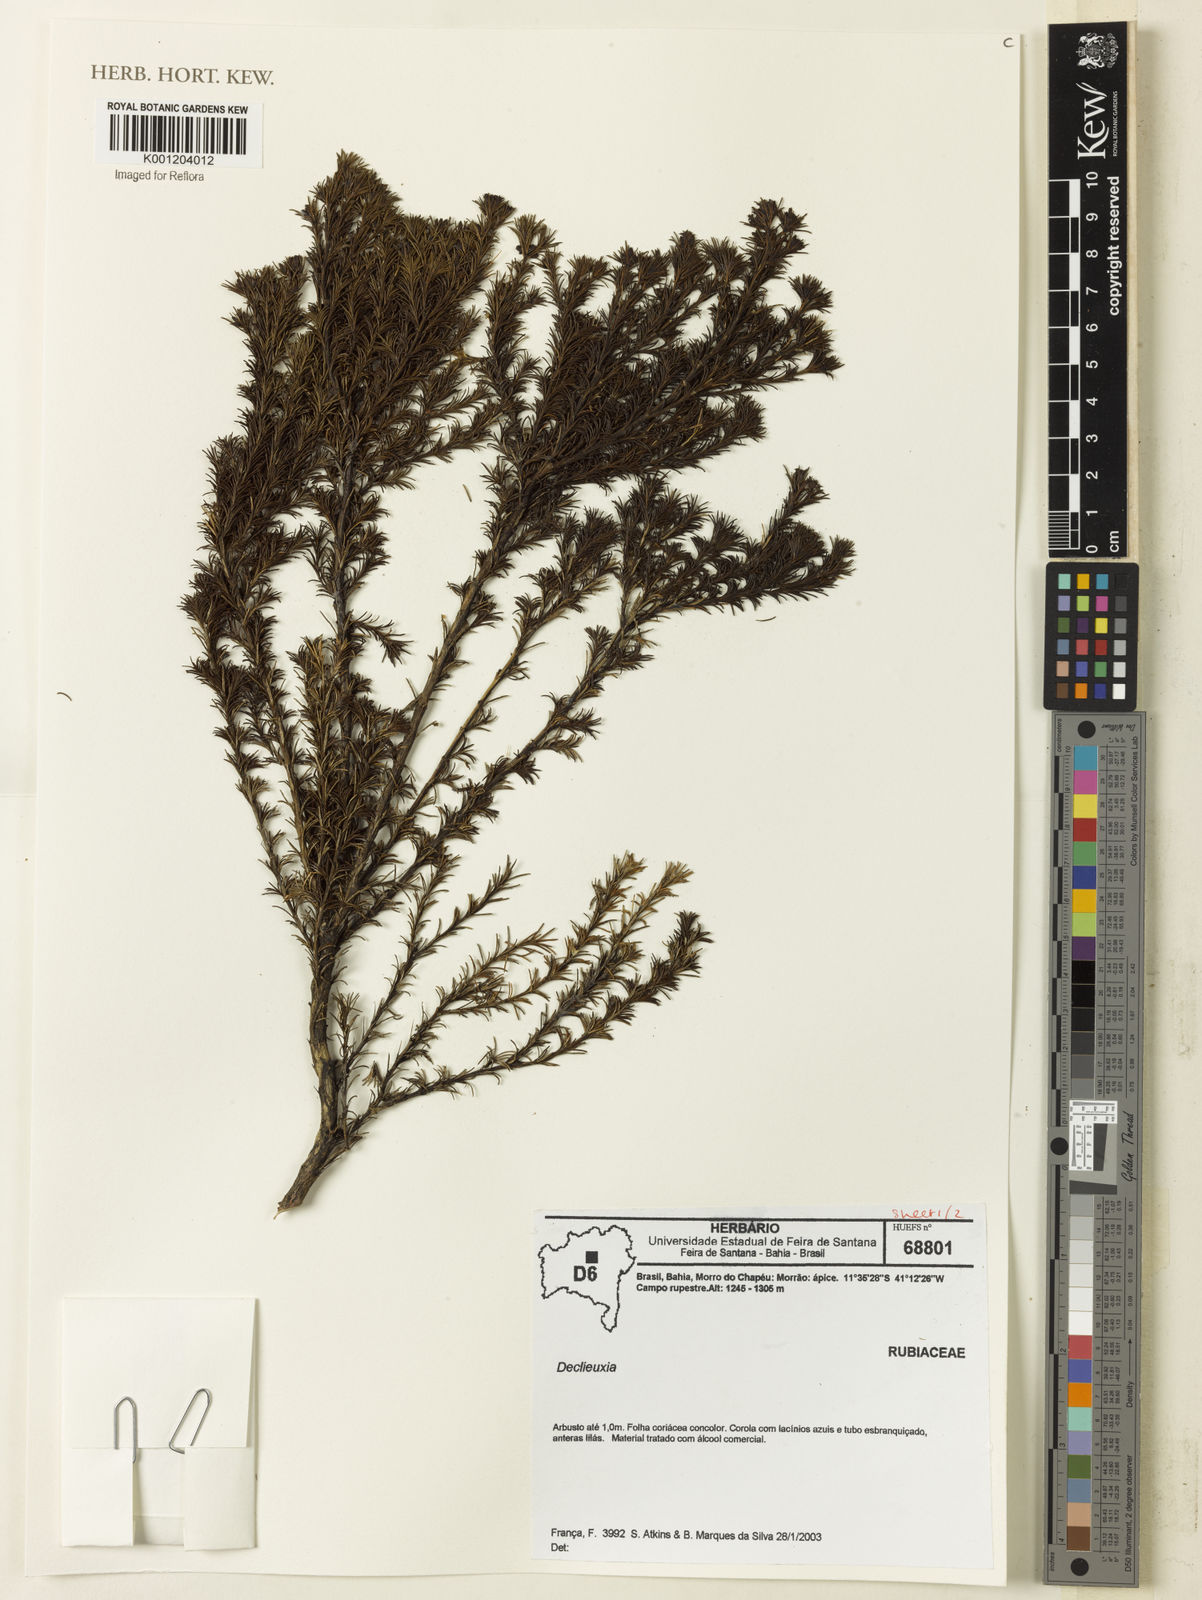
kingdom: Plantae
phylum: Tracheophyta
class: Magnoliopsida
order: Gentianales
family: Rubiaceae
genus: Declieuxia
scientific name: Declieuxia
